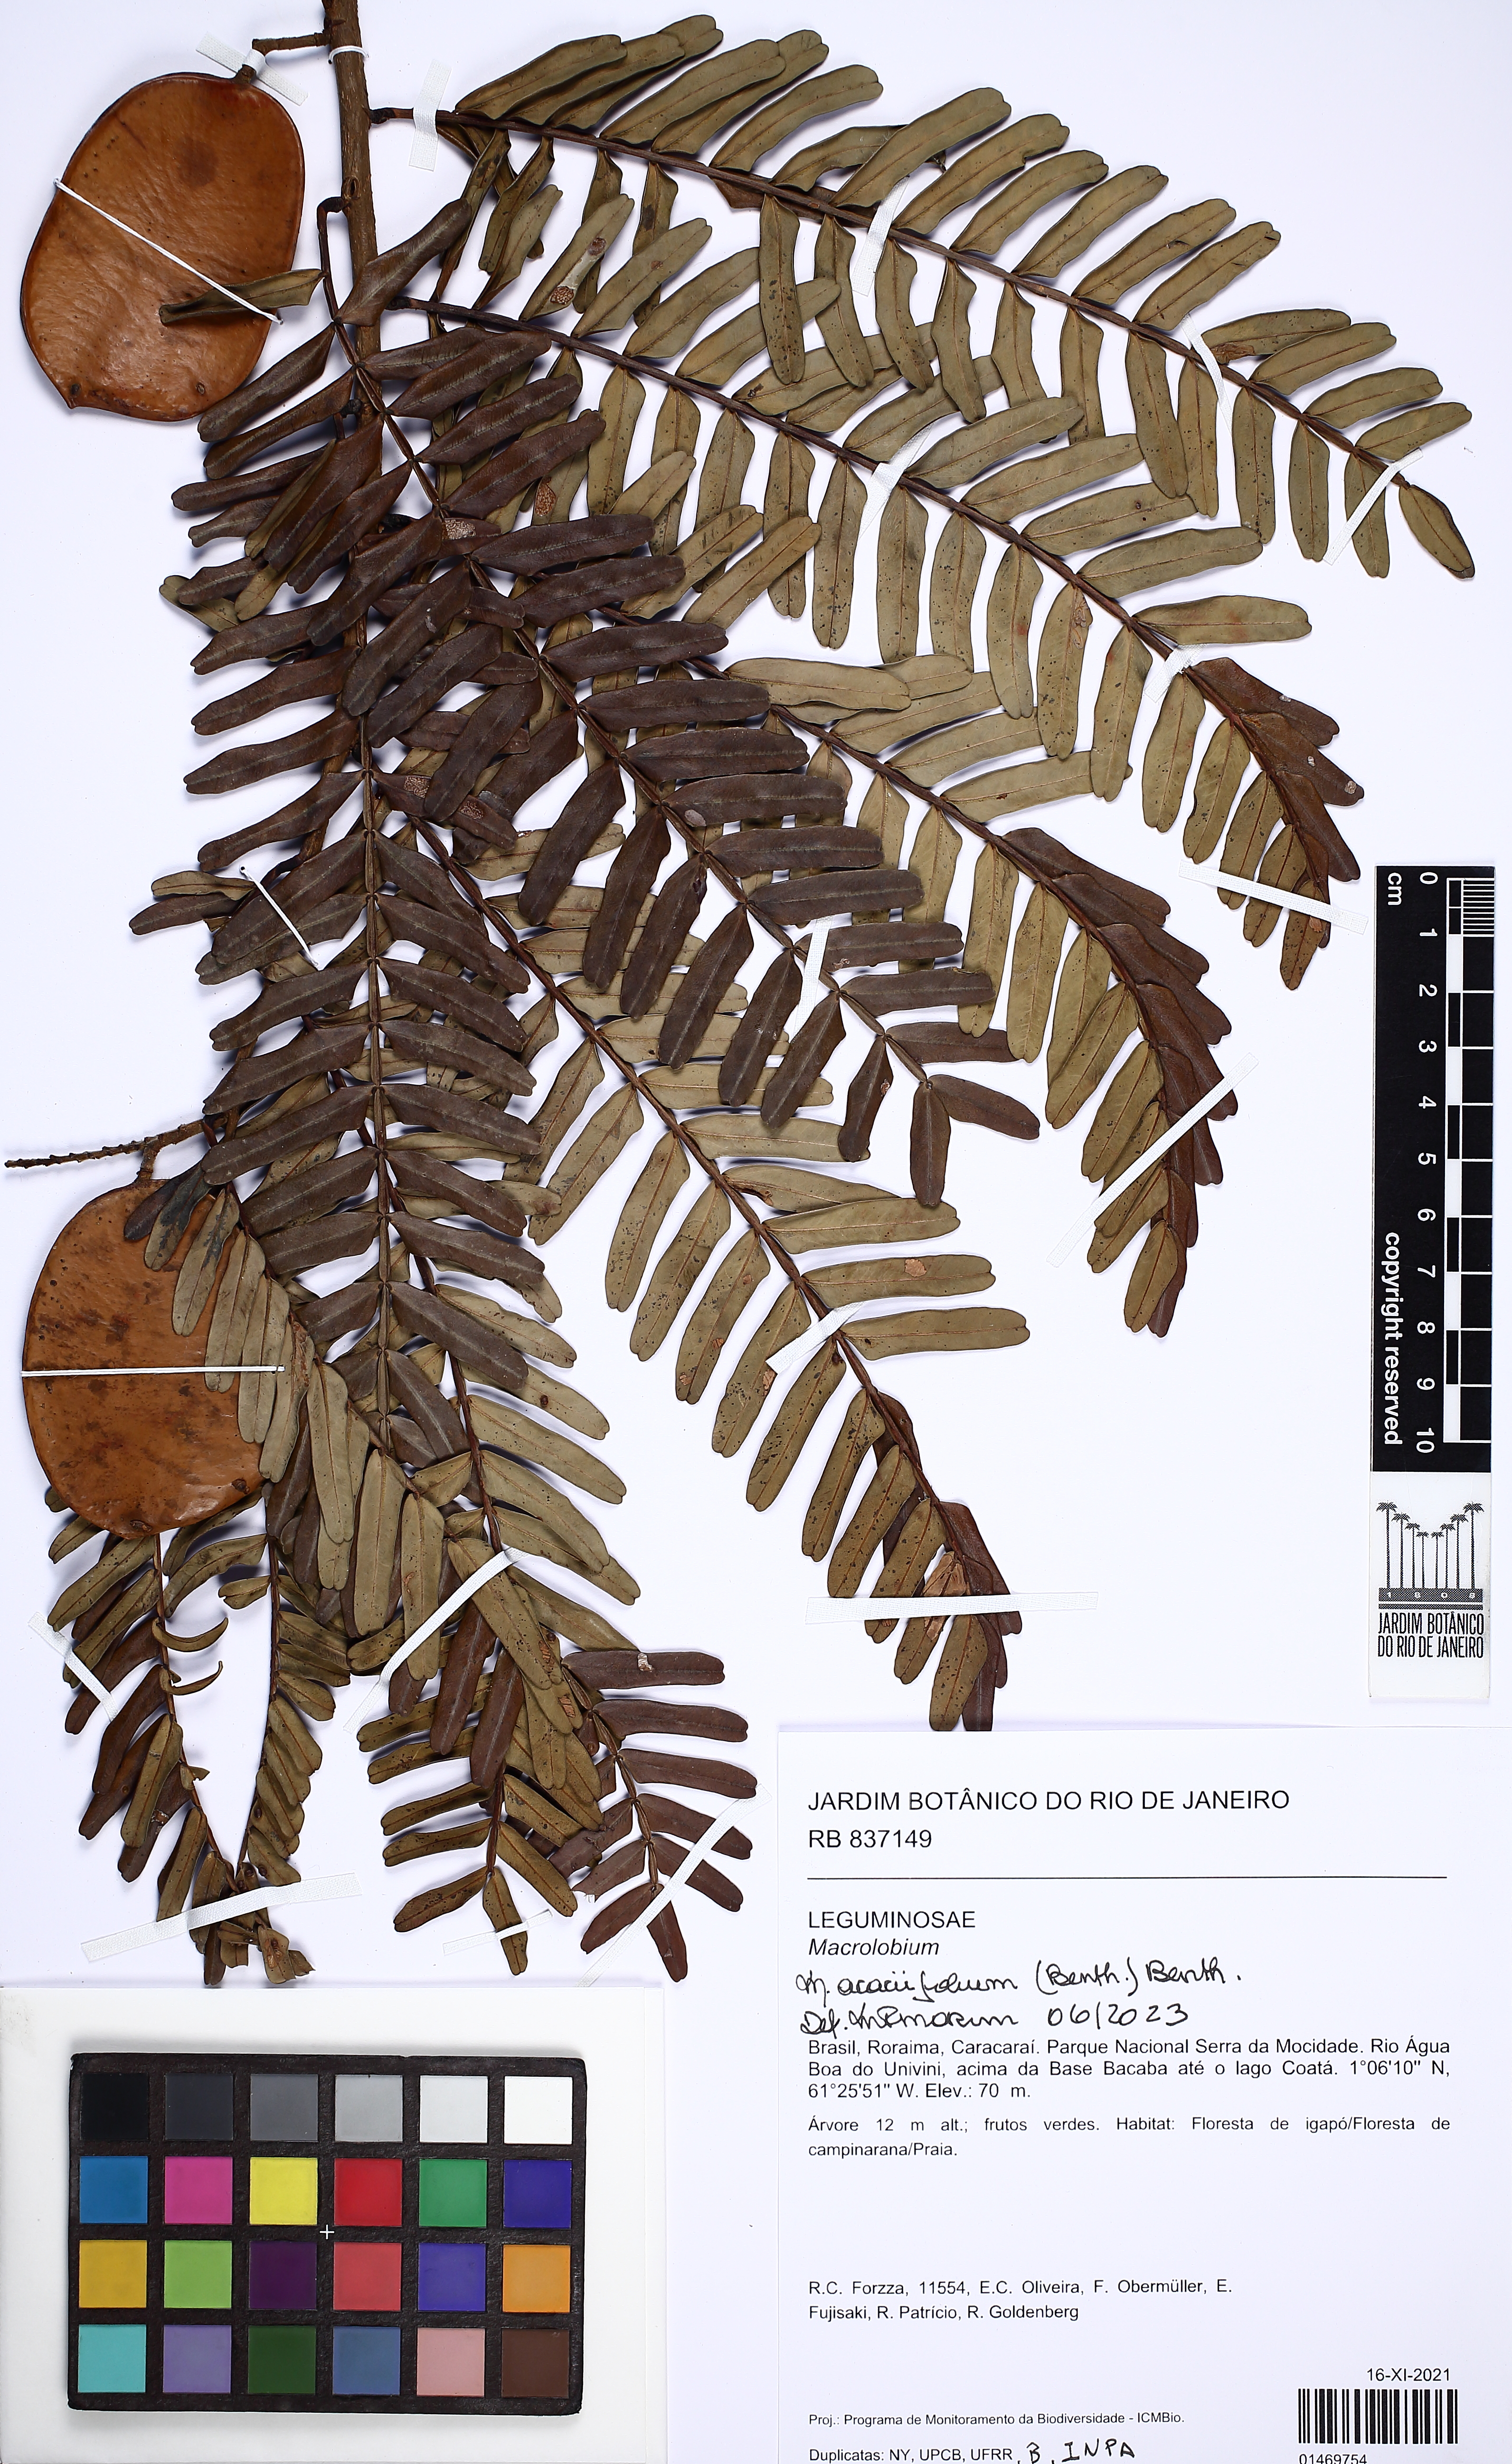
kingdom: Plantae
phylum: Tracheophyta
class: Magnoliopsida
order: Fabales
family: Fabaceae
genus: Macrolobium
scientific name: Macrolobium acaciifolium
